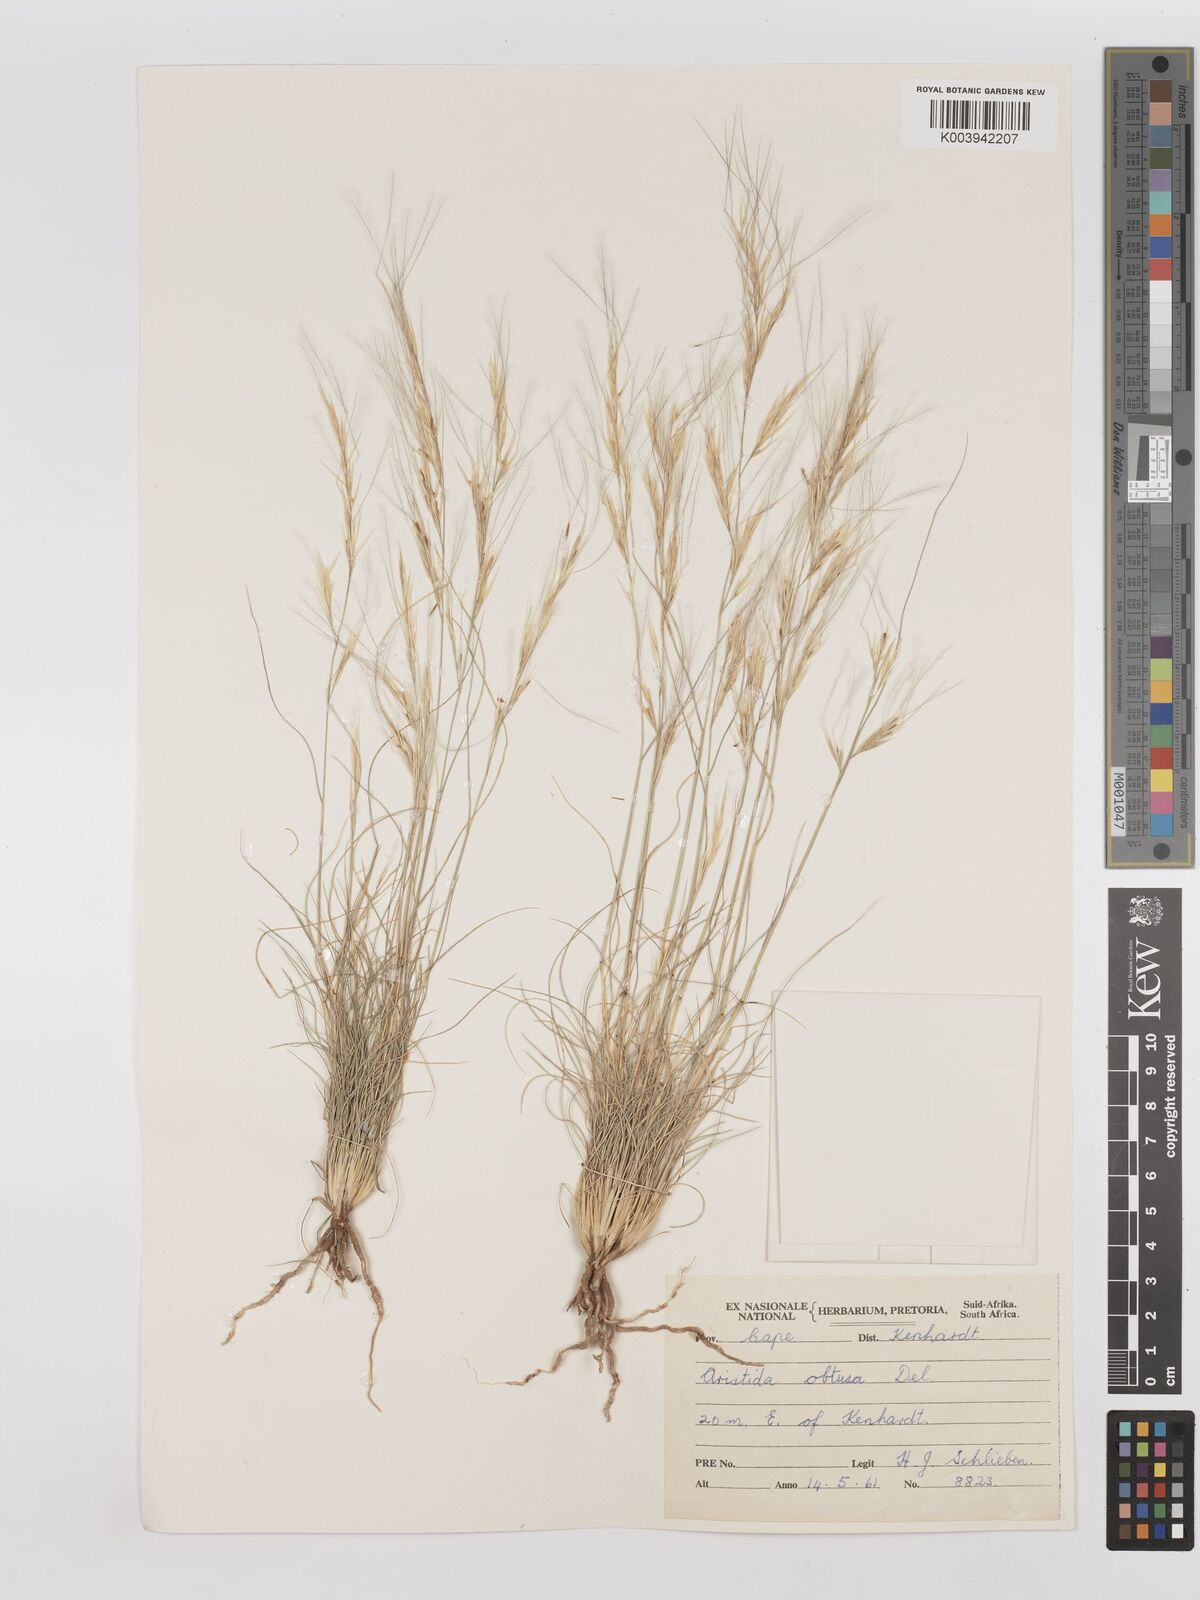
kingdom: Plantae
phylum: Tracheophyta
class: Liliopsida
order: Poales
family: Poaceae
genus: Stipagrostis
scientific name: Stipagrostis obtusa
